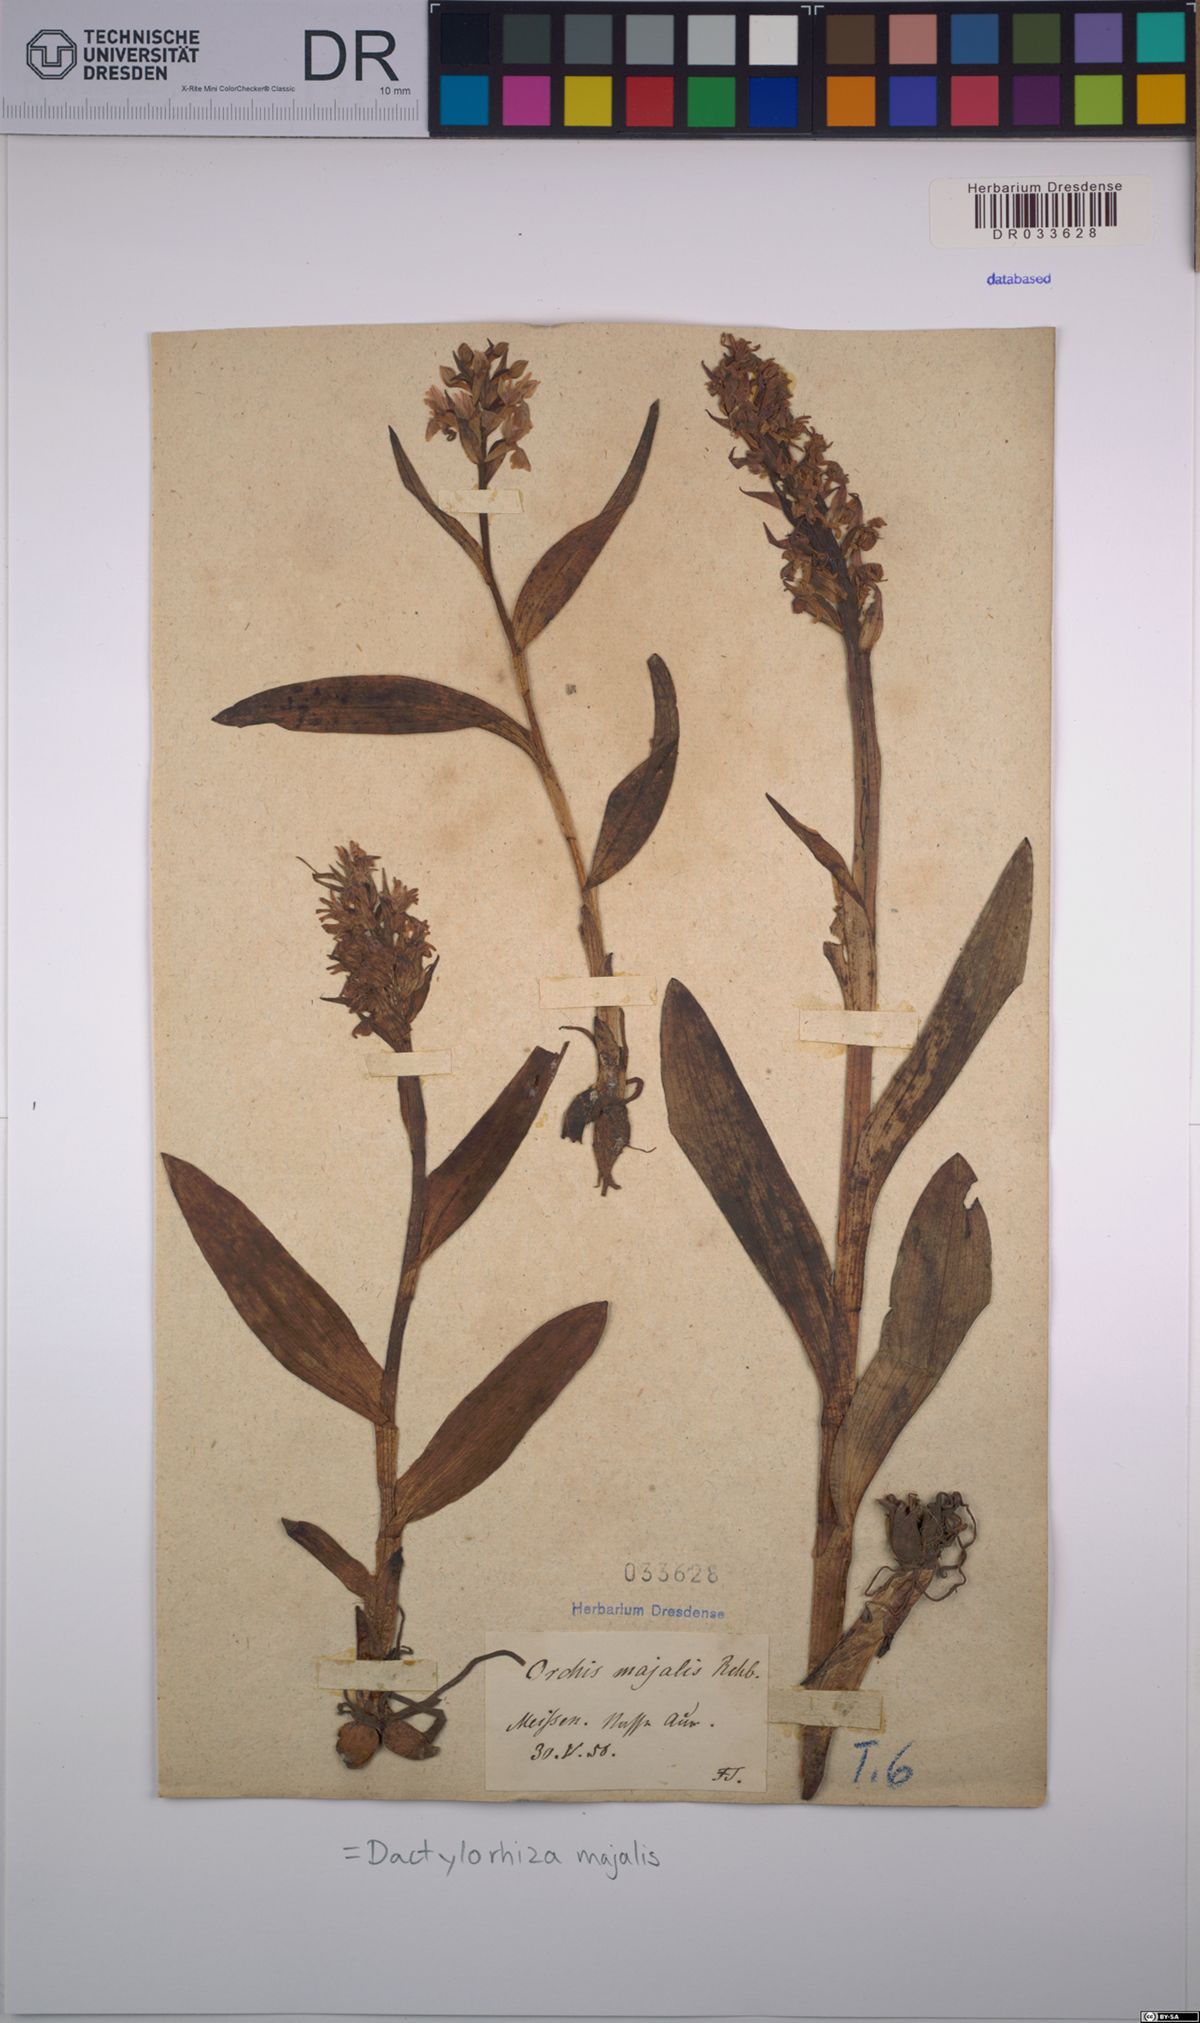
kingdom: Plantae
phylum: Tracheophyta
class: Liliopsida
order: Asparagales
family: Orchidaceae
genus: Dactylorhiza
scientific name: Dactylorhiza majalis
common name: Marsh orchid
